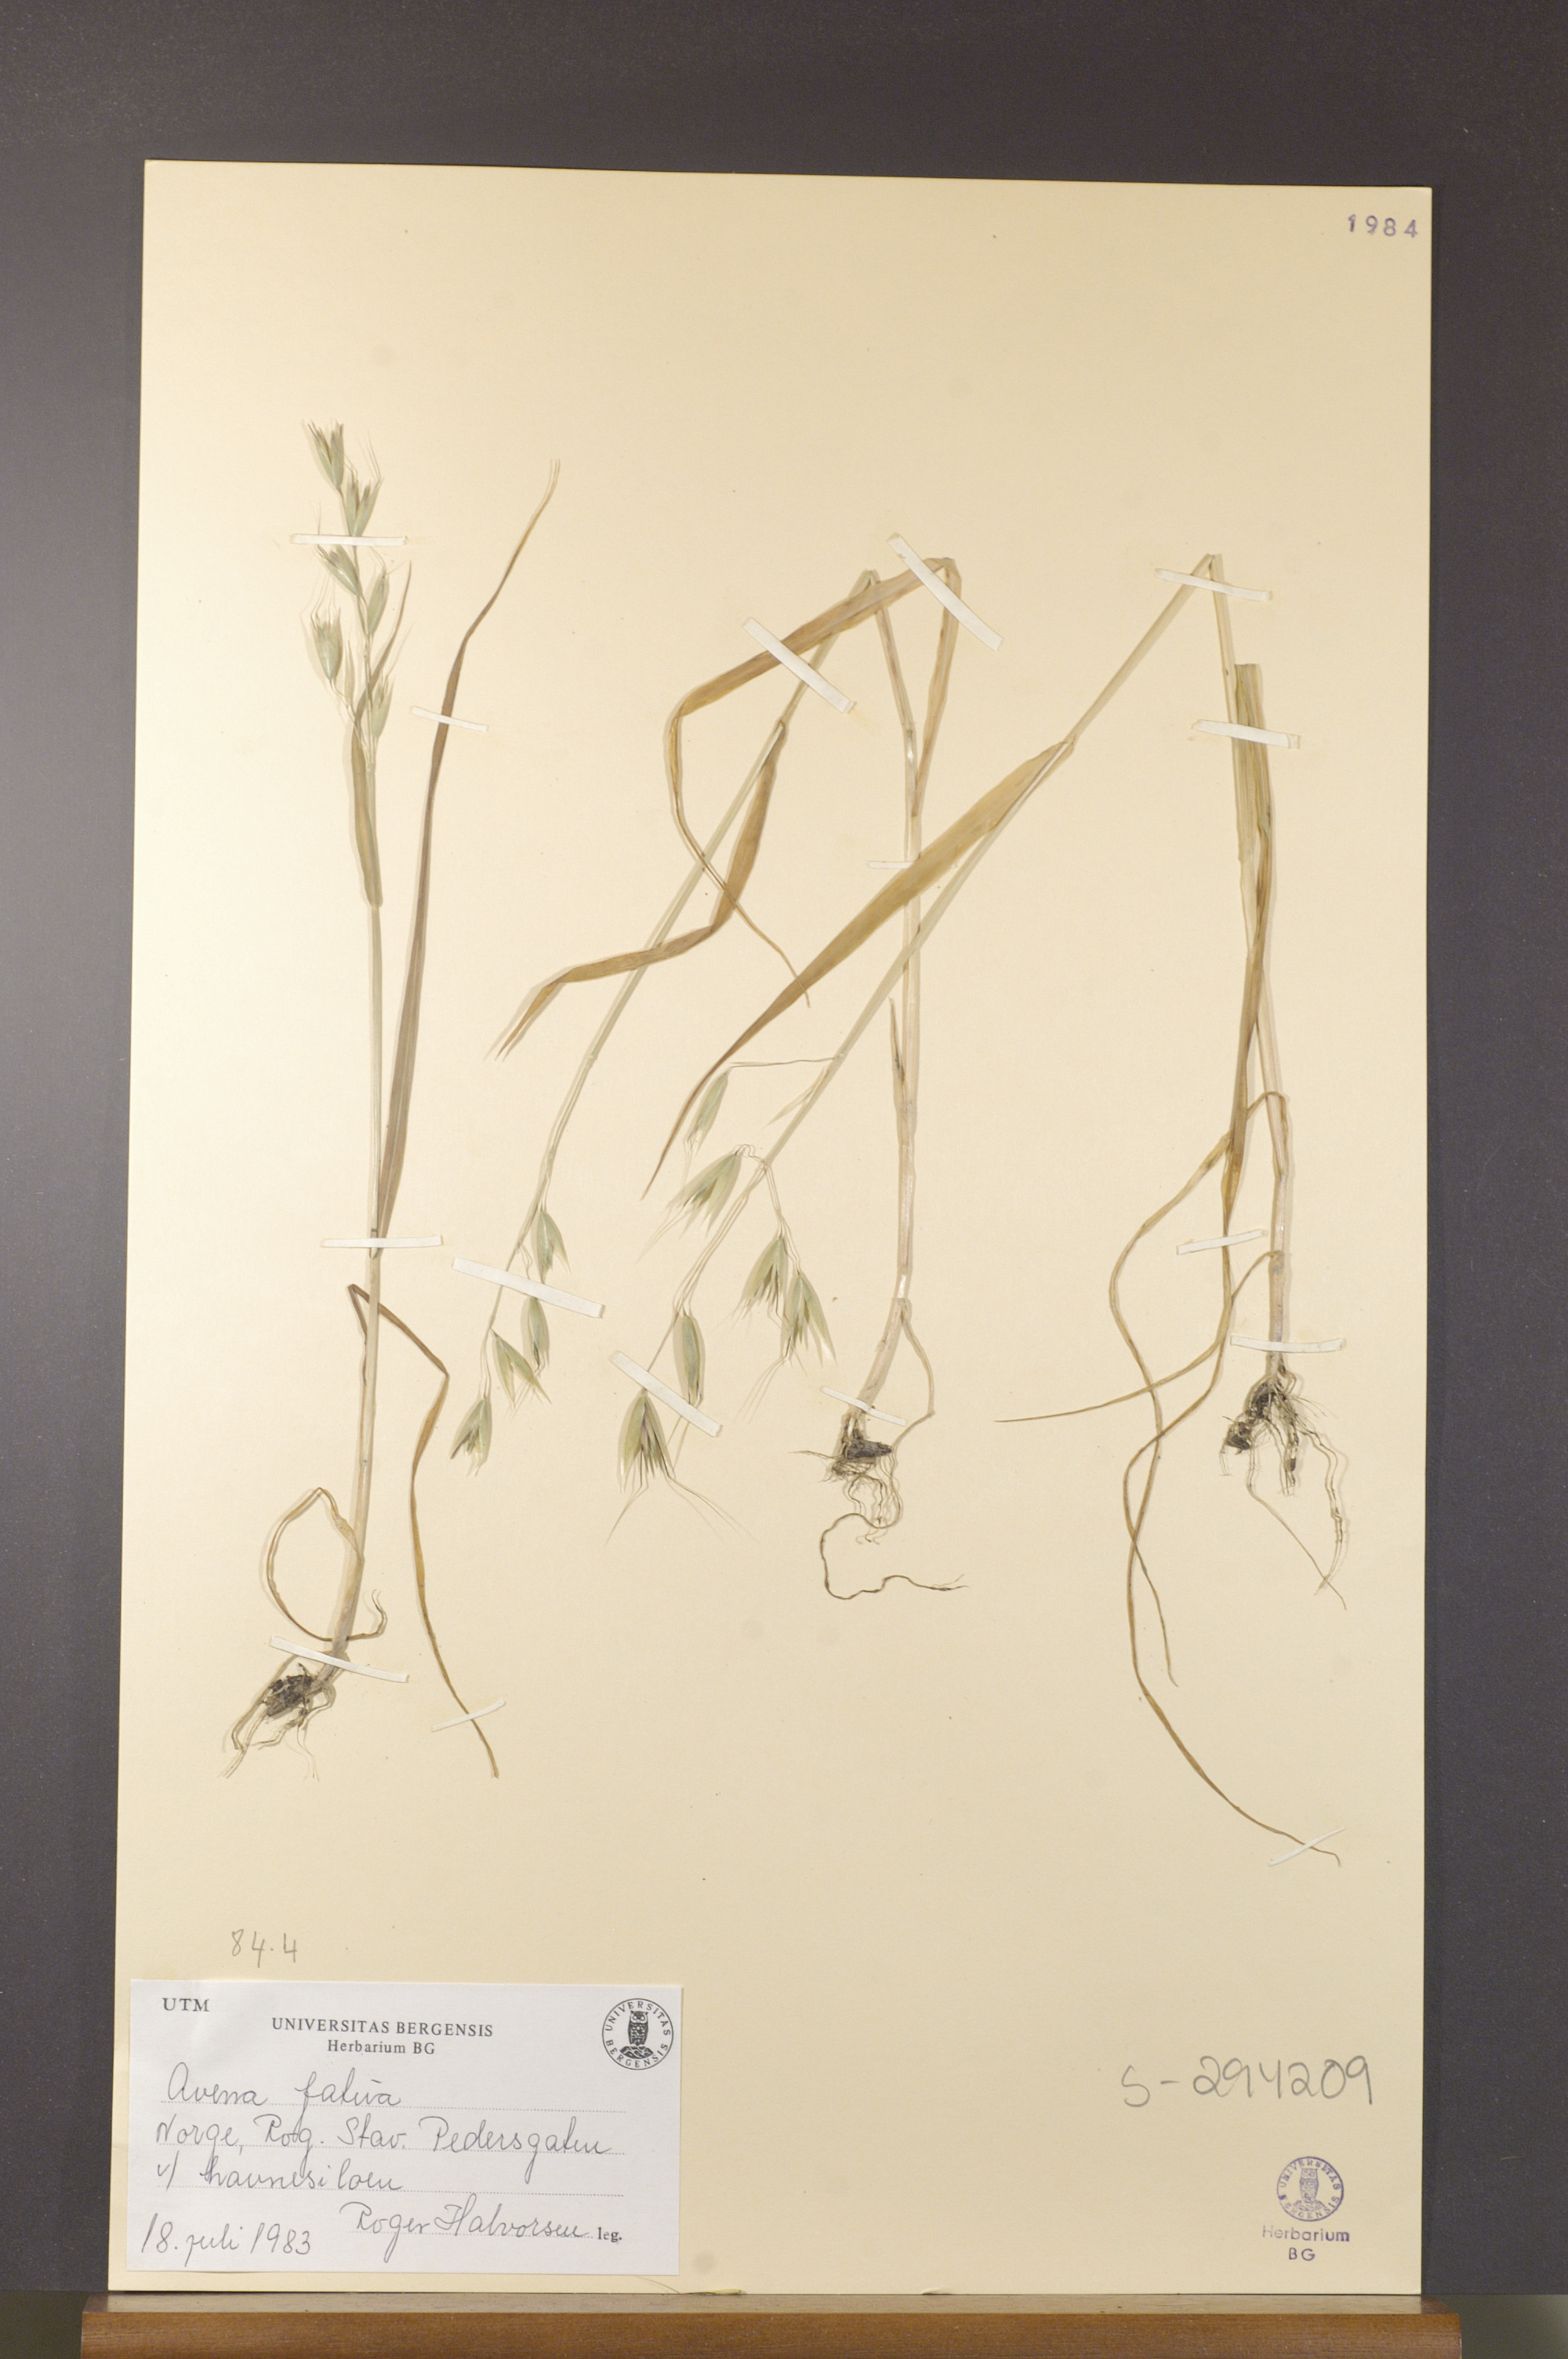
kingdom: Plantae
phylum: Tracheophyta
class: Liliopsida
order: Poales
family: Poaceae
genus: Avena
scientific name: Avena fatua
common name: Wild oat
